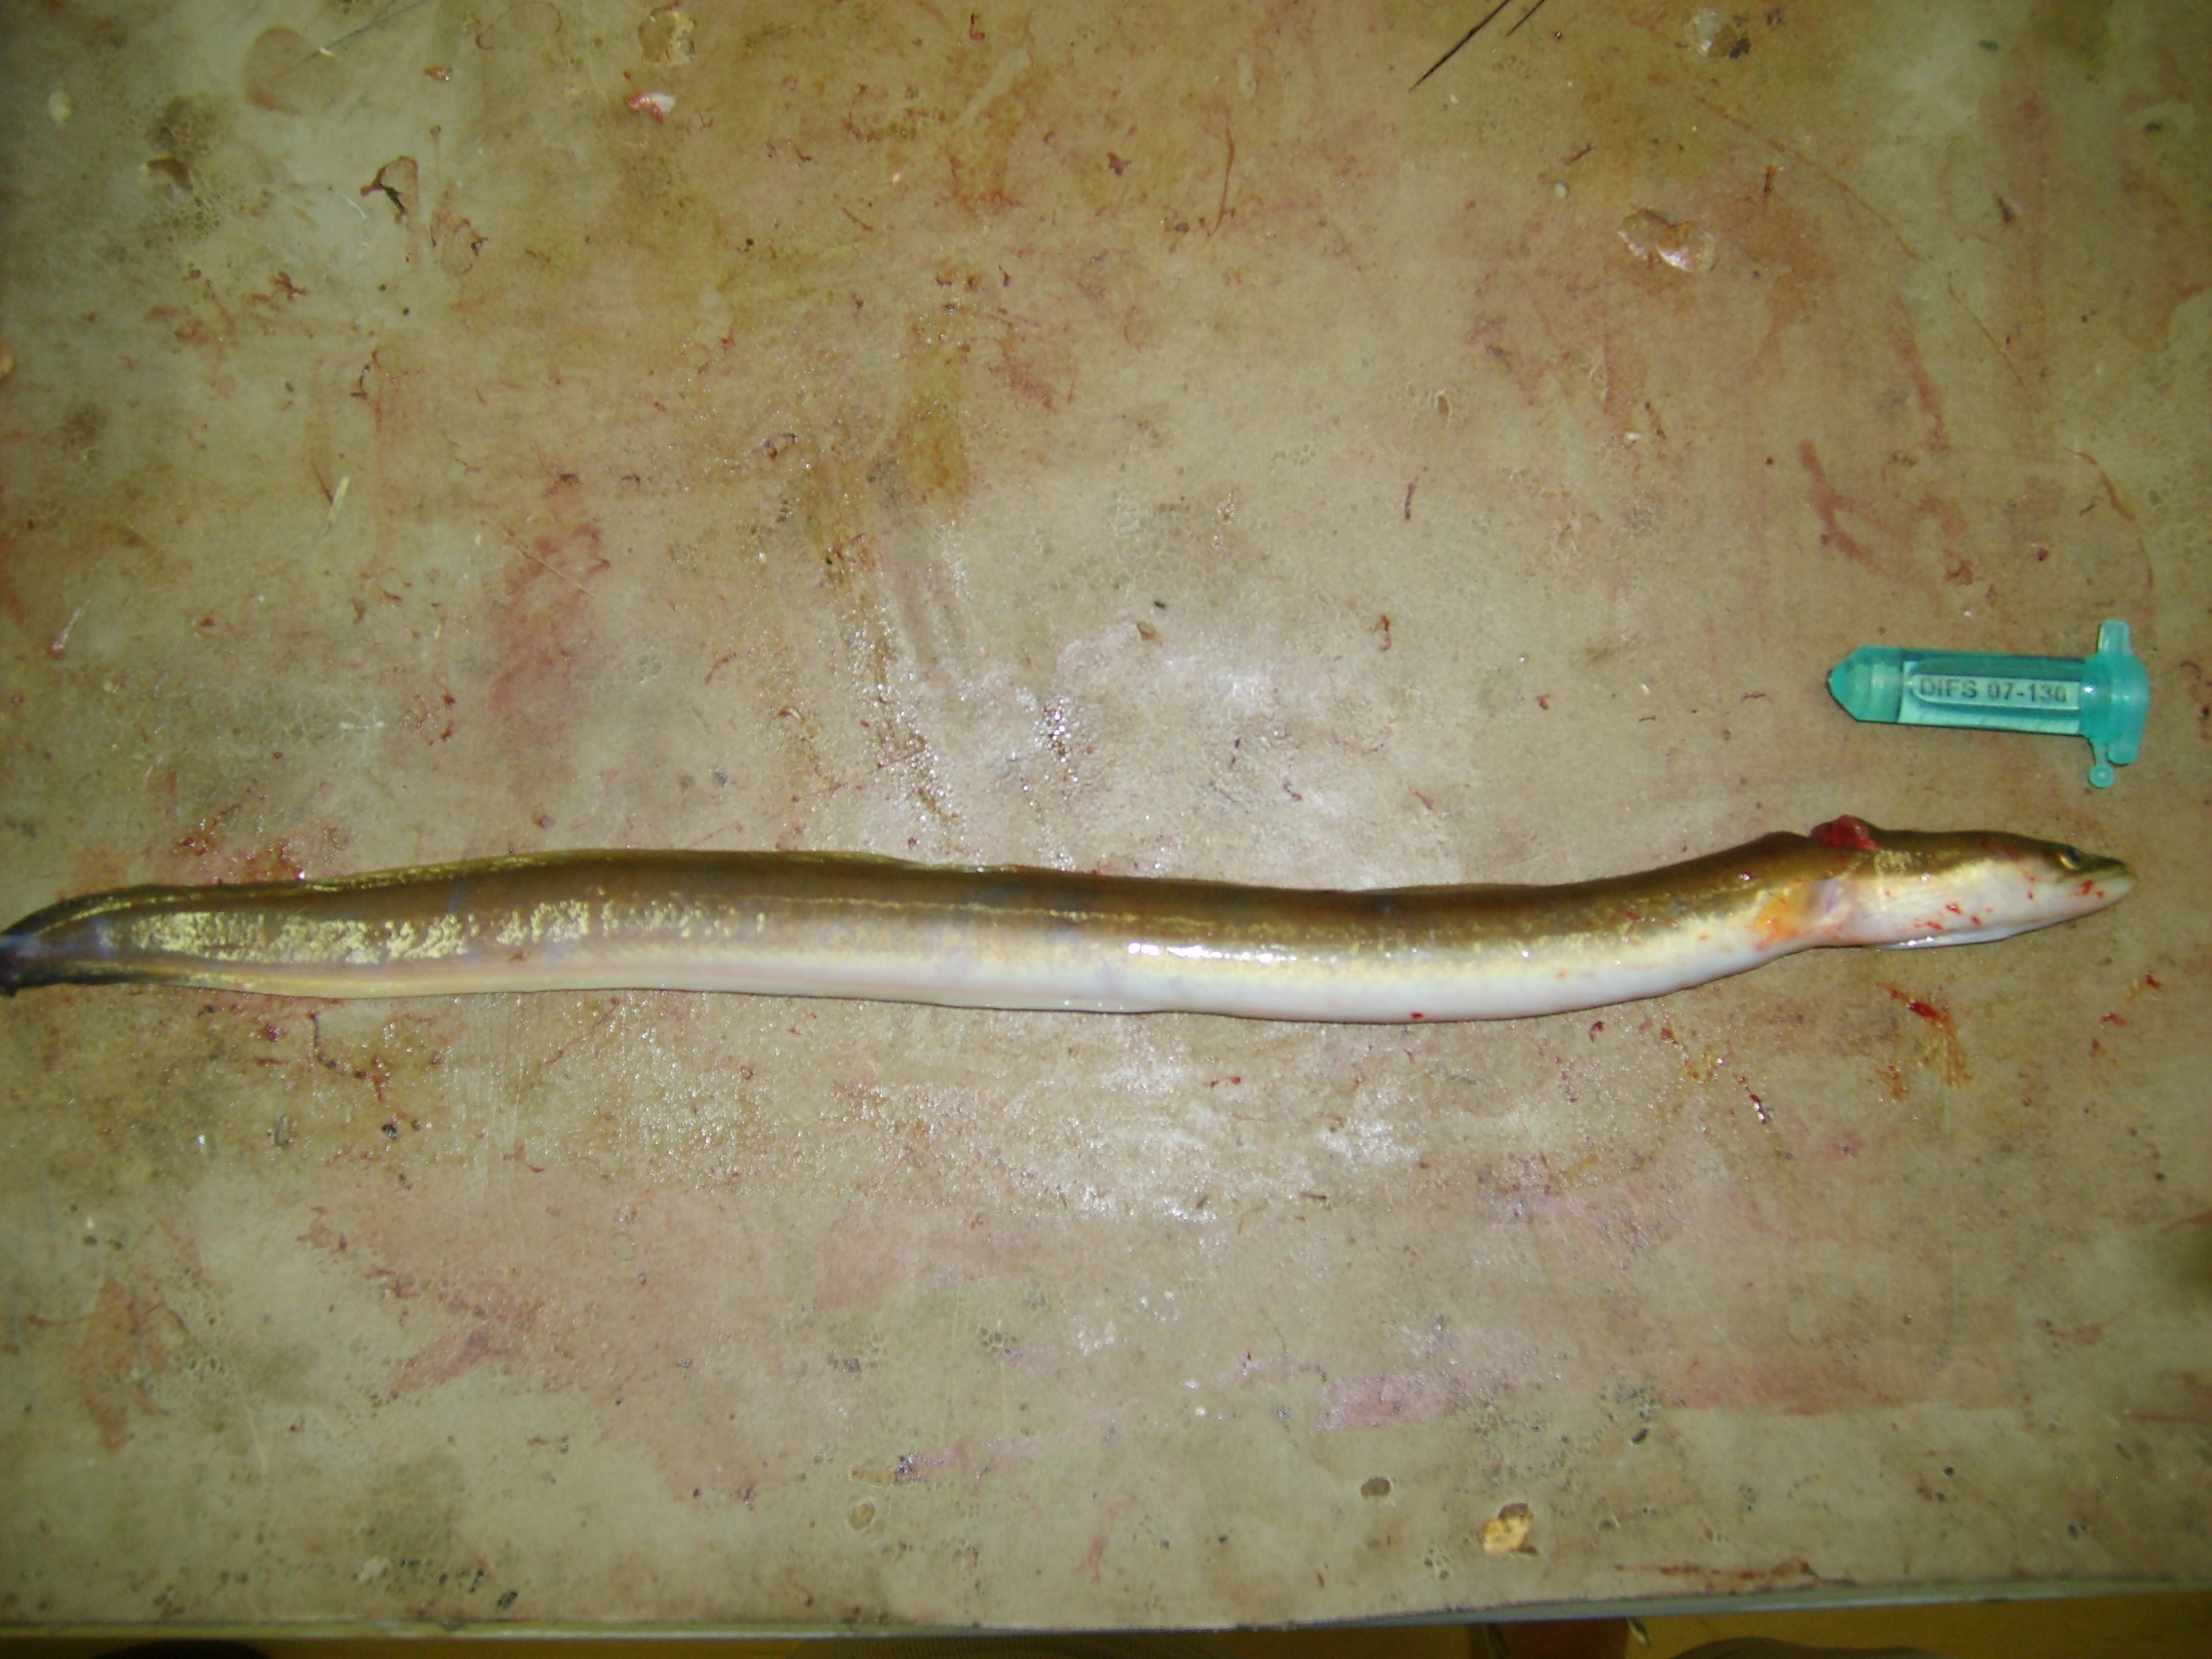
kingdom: Animalia
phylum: Chordata
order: Anguilliformes
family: Anguillidae
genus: Anguilla
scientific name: Anguilla mossambica
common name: African longfin eel
